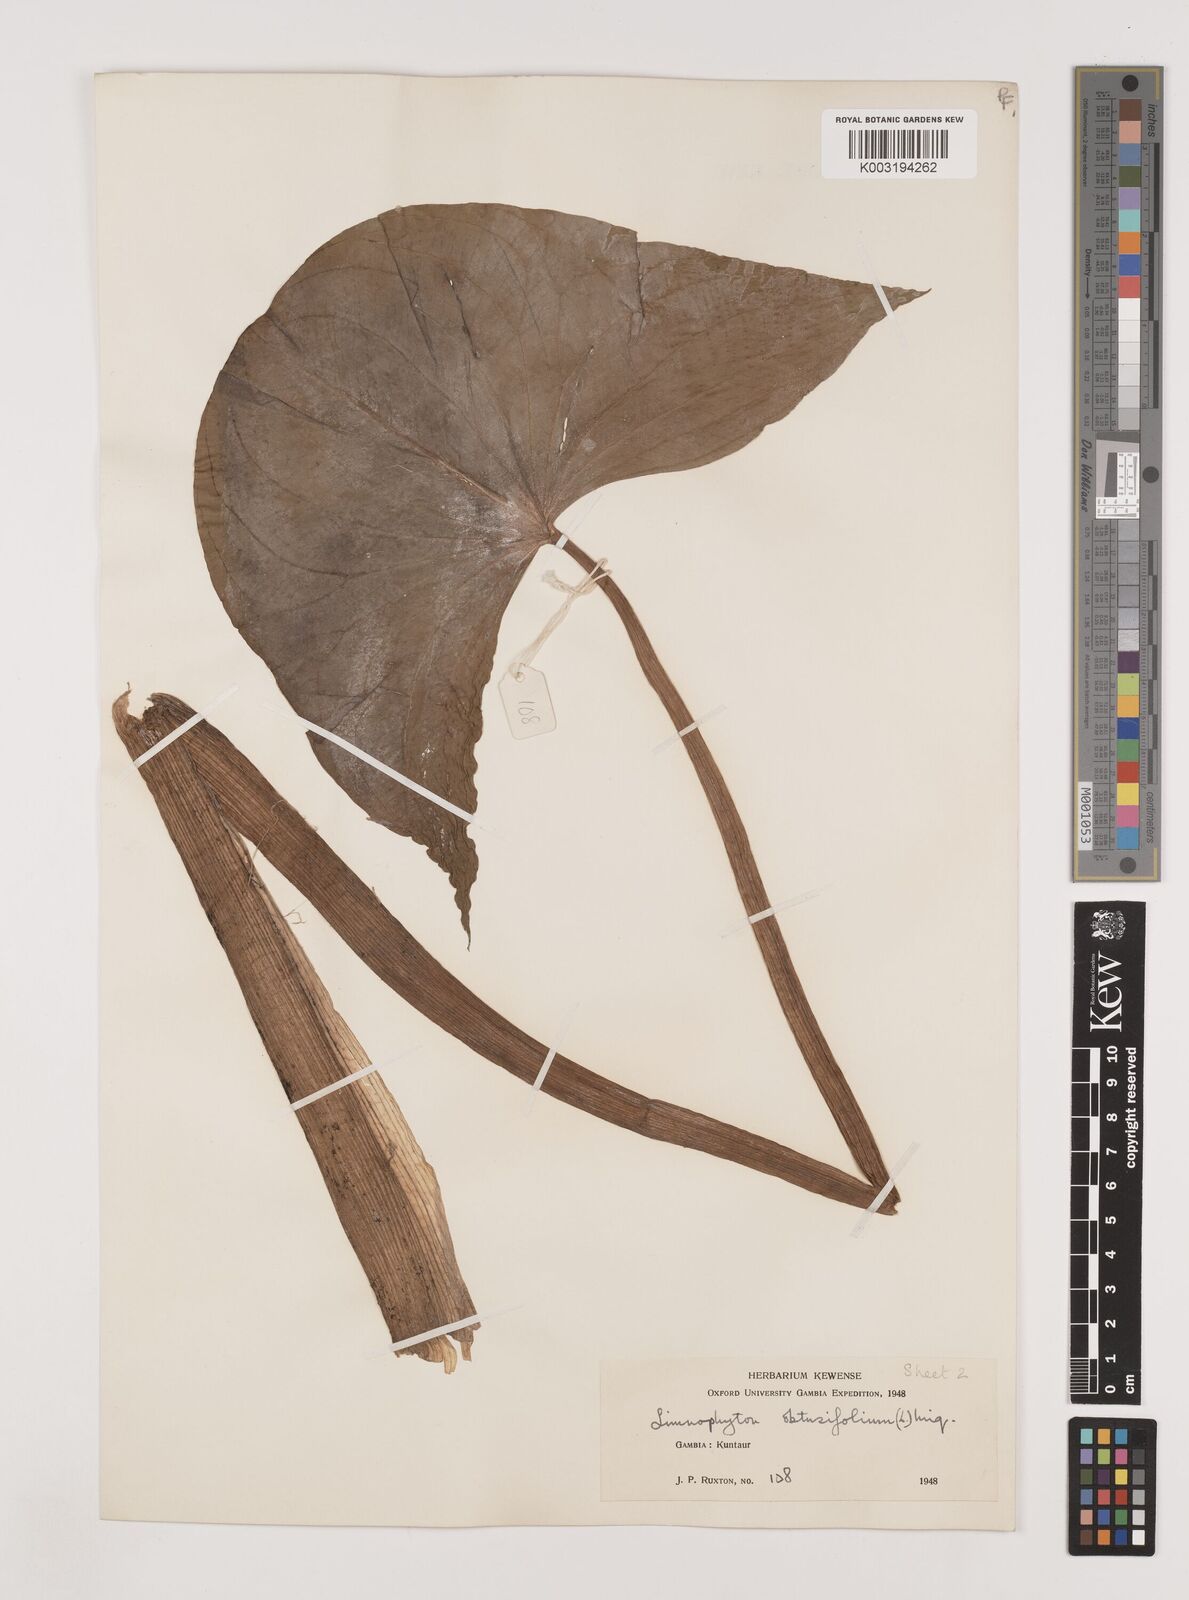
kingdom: Plantae
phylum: Tracheophyta
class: Liliopsida
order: Alismatales
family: Alismataceae
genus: Limnophyton
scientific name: Limnophyton obtusifolium
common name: Arrow head
